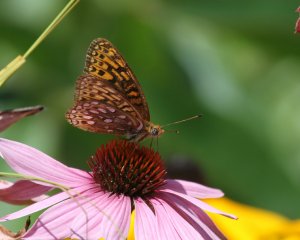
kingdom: Animalia
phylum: Arthropoda
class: Insecta
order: Lepidoptera
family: Nymphalidae
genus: Speyeria
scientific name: Speyeria atlantis
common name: Atlantis Fritillary
